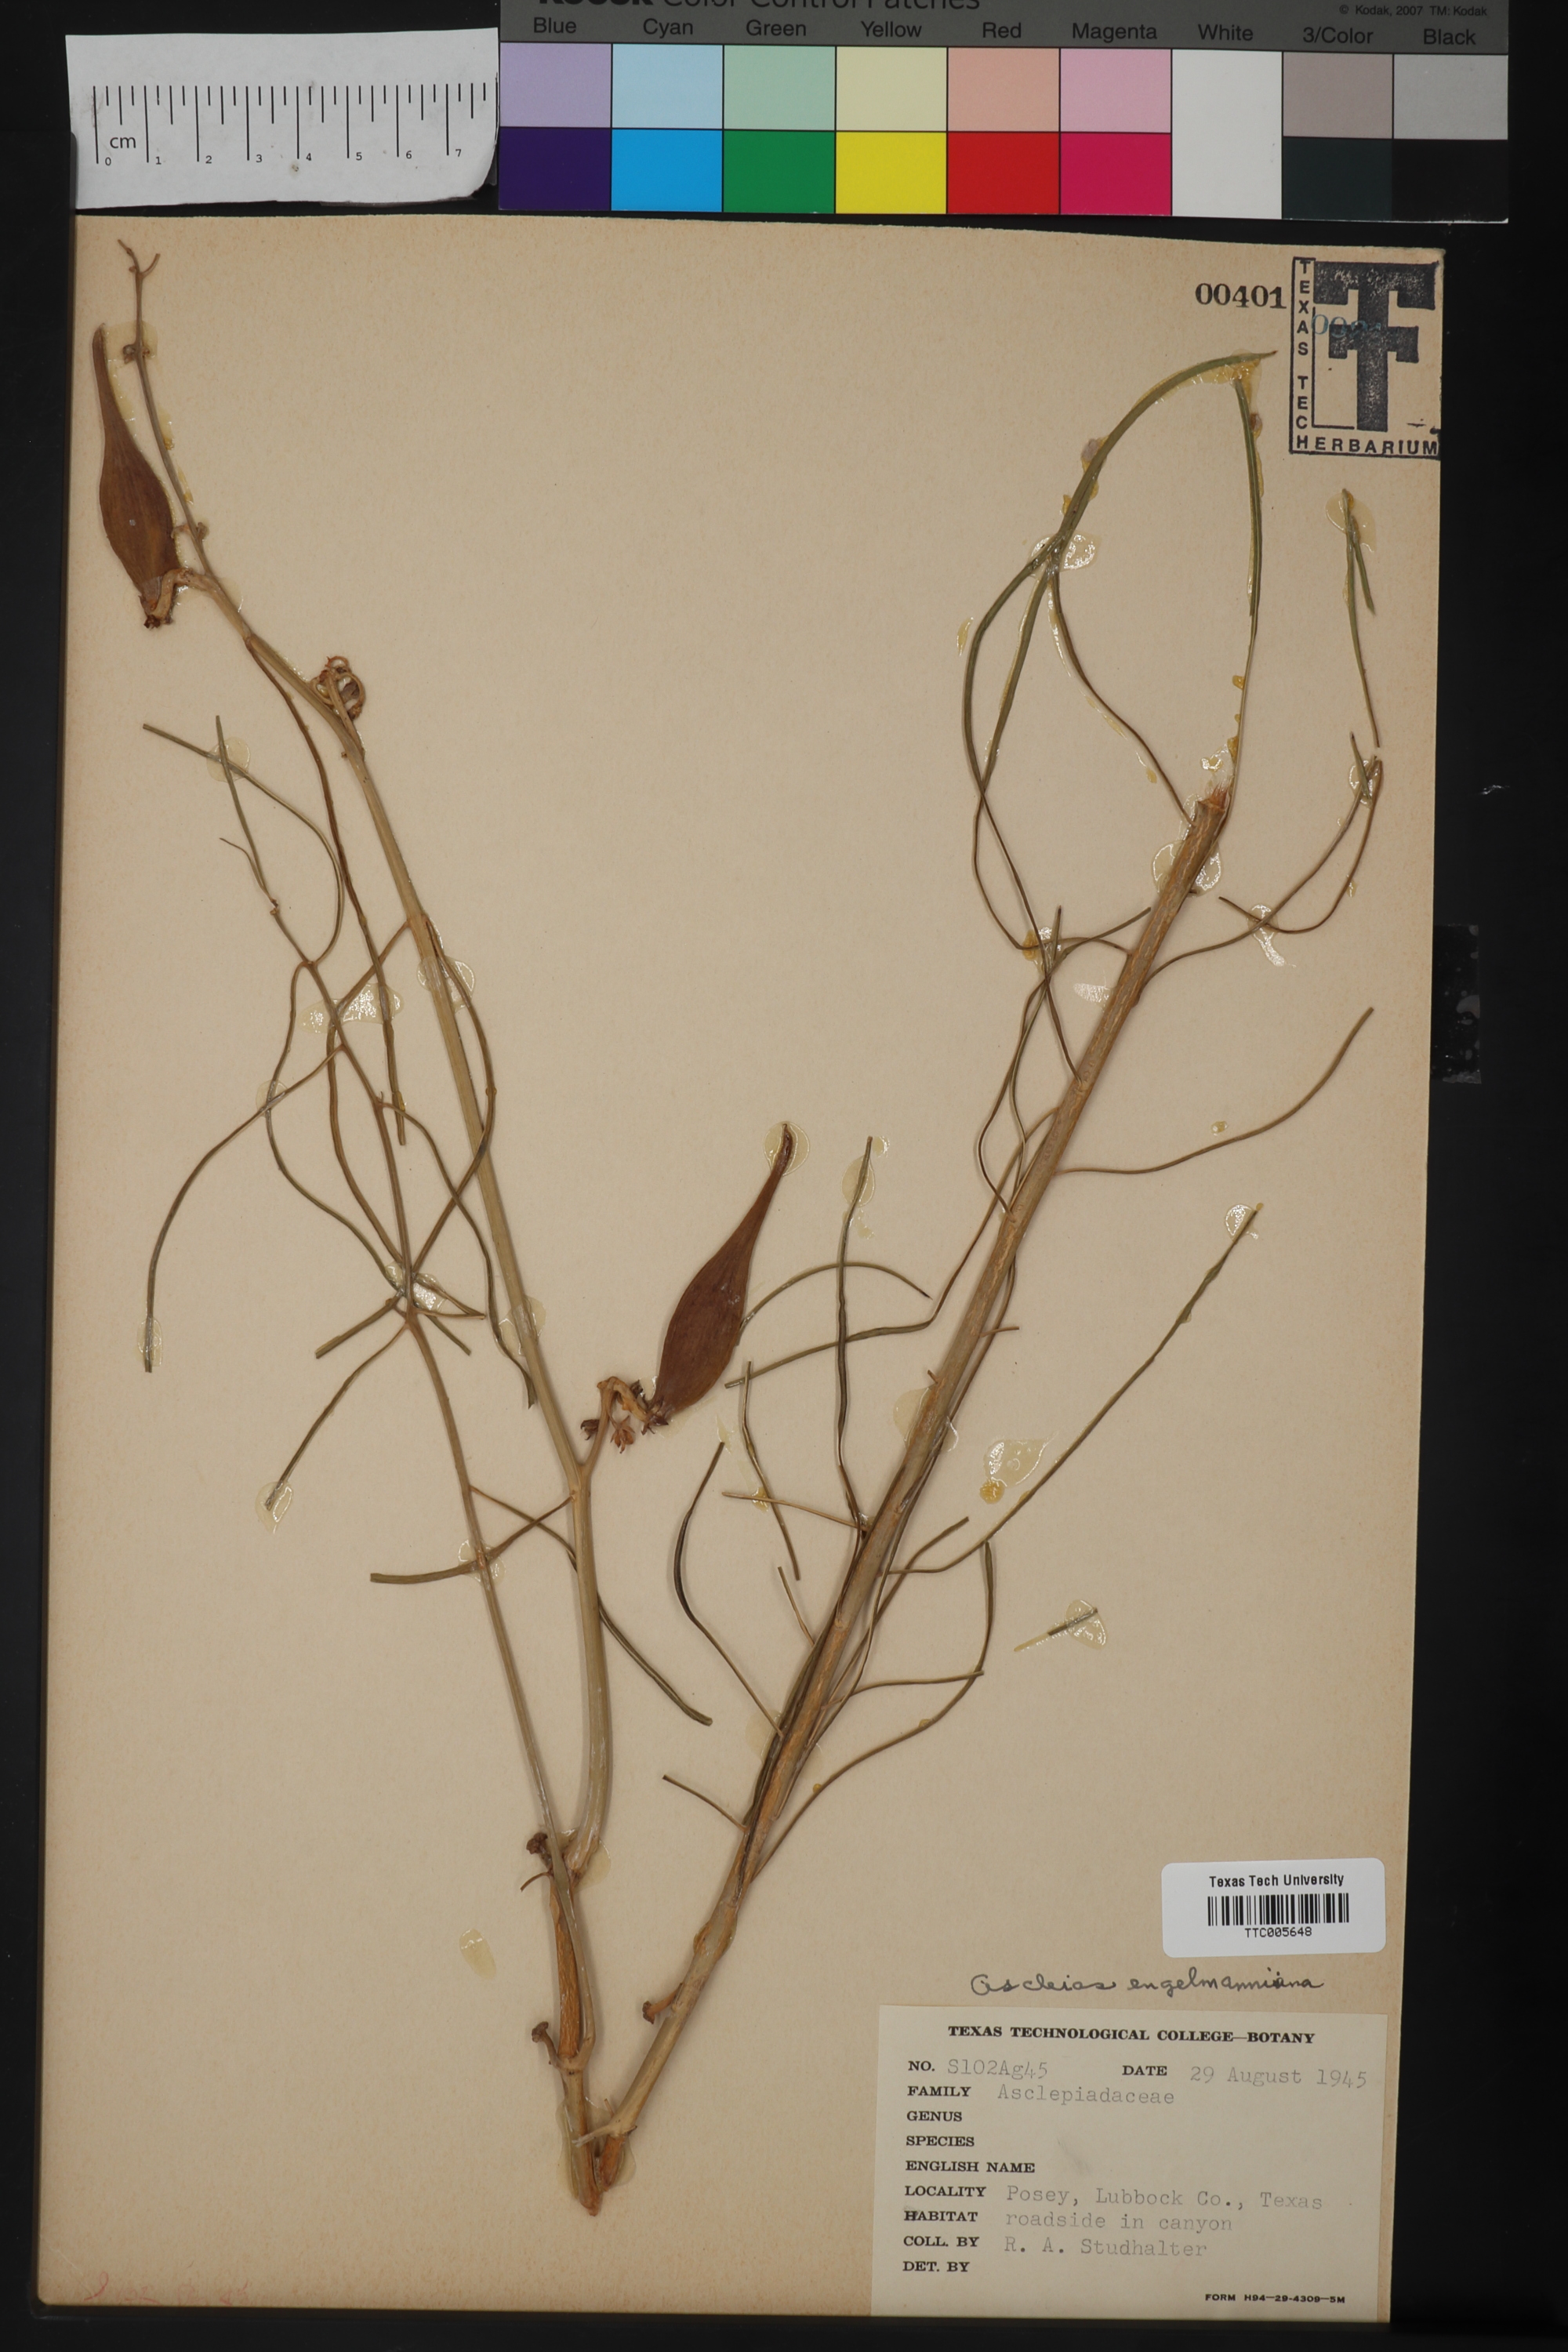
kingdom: Plantae
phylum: Tracheophyta
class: Magnoliopsida
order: Gentianales
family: Apocynaceae
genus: Asclepias
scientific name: Asclepias engelmanniana
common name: Engelmann's milkweed
